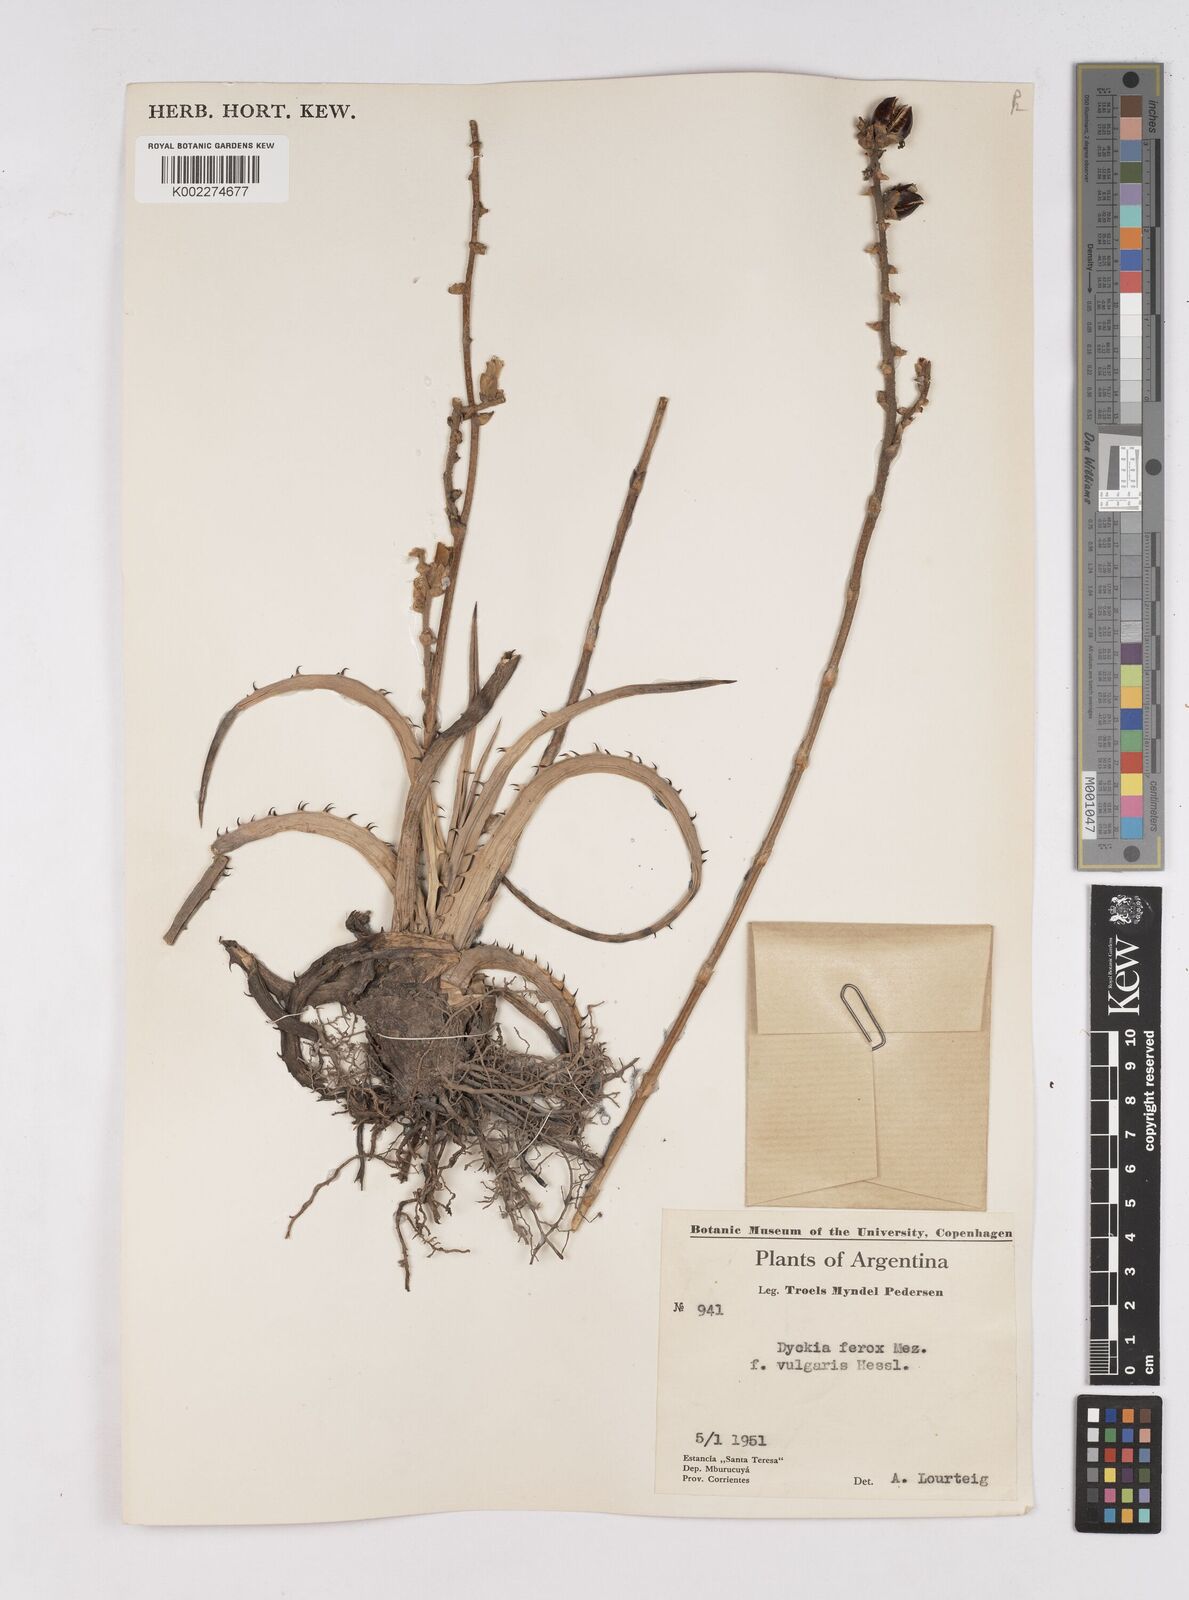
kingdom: Plantae
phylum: Tracheophyta
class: Liliopsida
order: Poales
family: Bromeliaceae
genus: Dyckia
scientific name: Dyckia ferox
